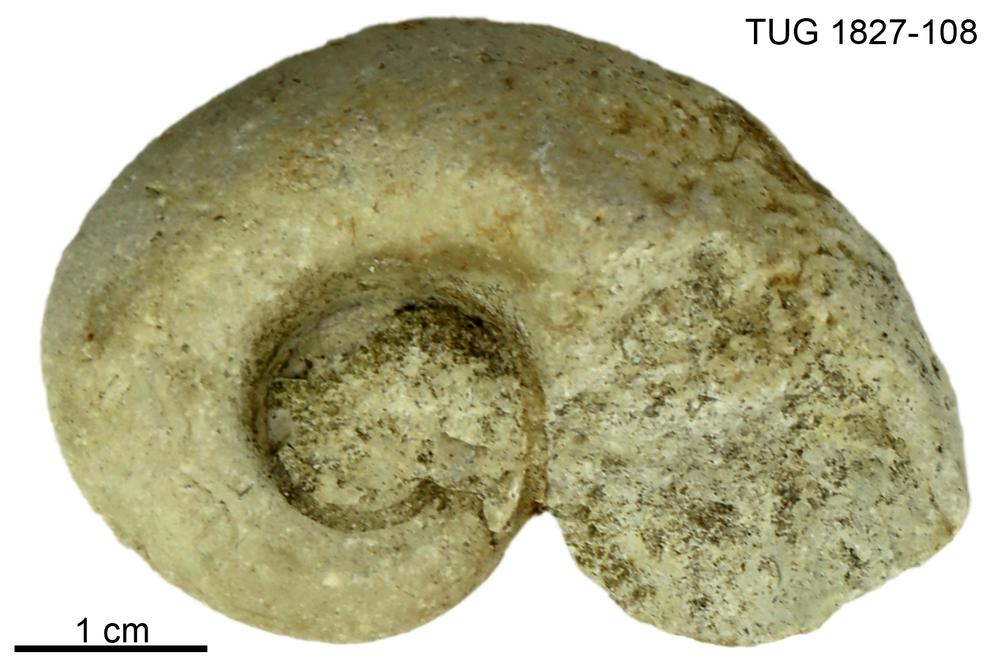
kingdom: Animalia
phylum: Mollusca
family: Macluritidae
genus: Maclurites
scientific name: Maclurites Maclurea neritoides
